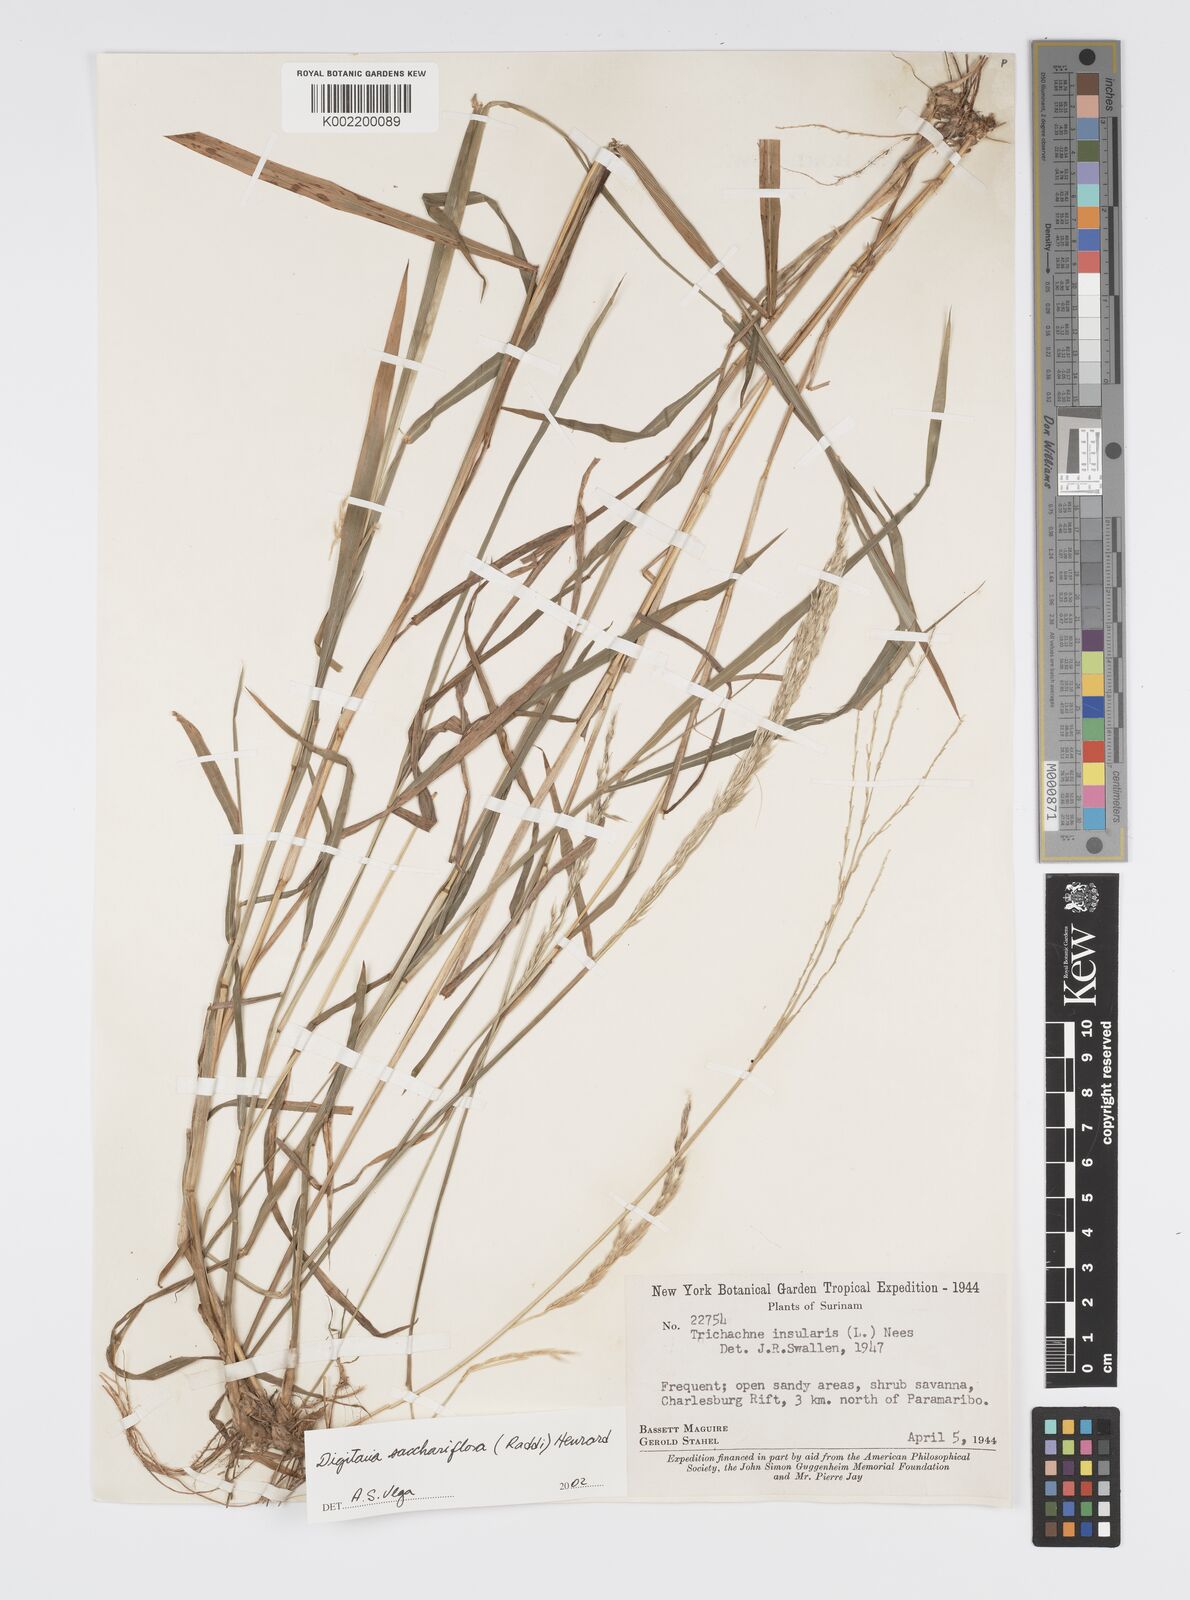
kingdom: Plantae
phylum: Tracheophyta
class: Liliopsida
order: Poales
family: Poaceae
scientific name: Poaceae
